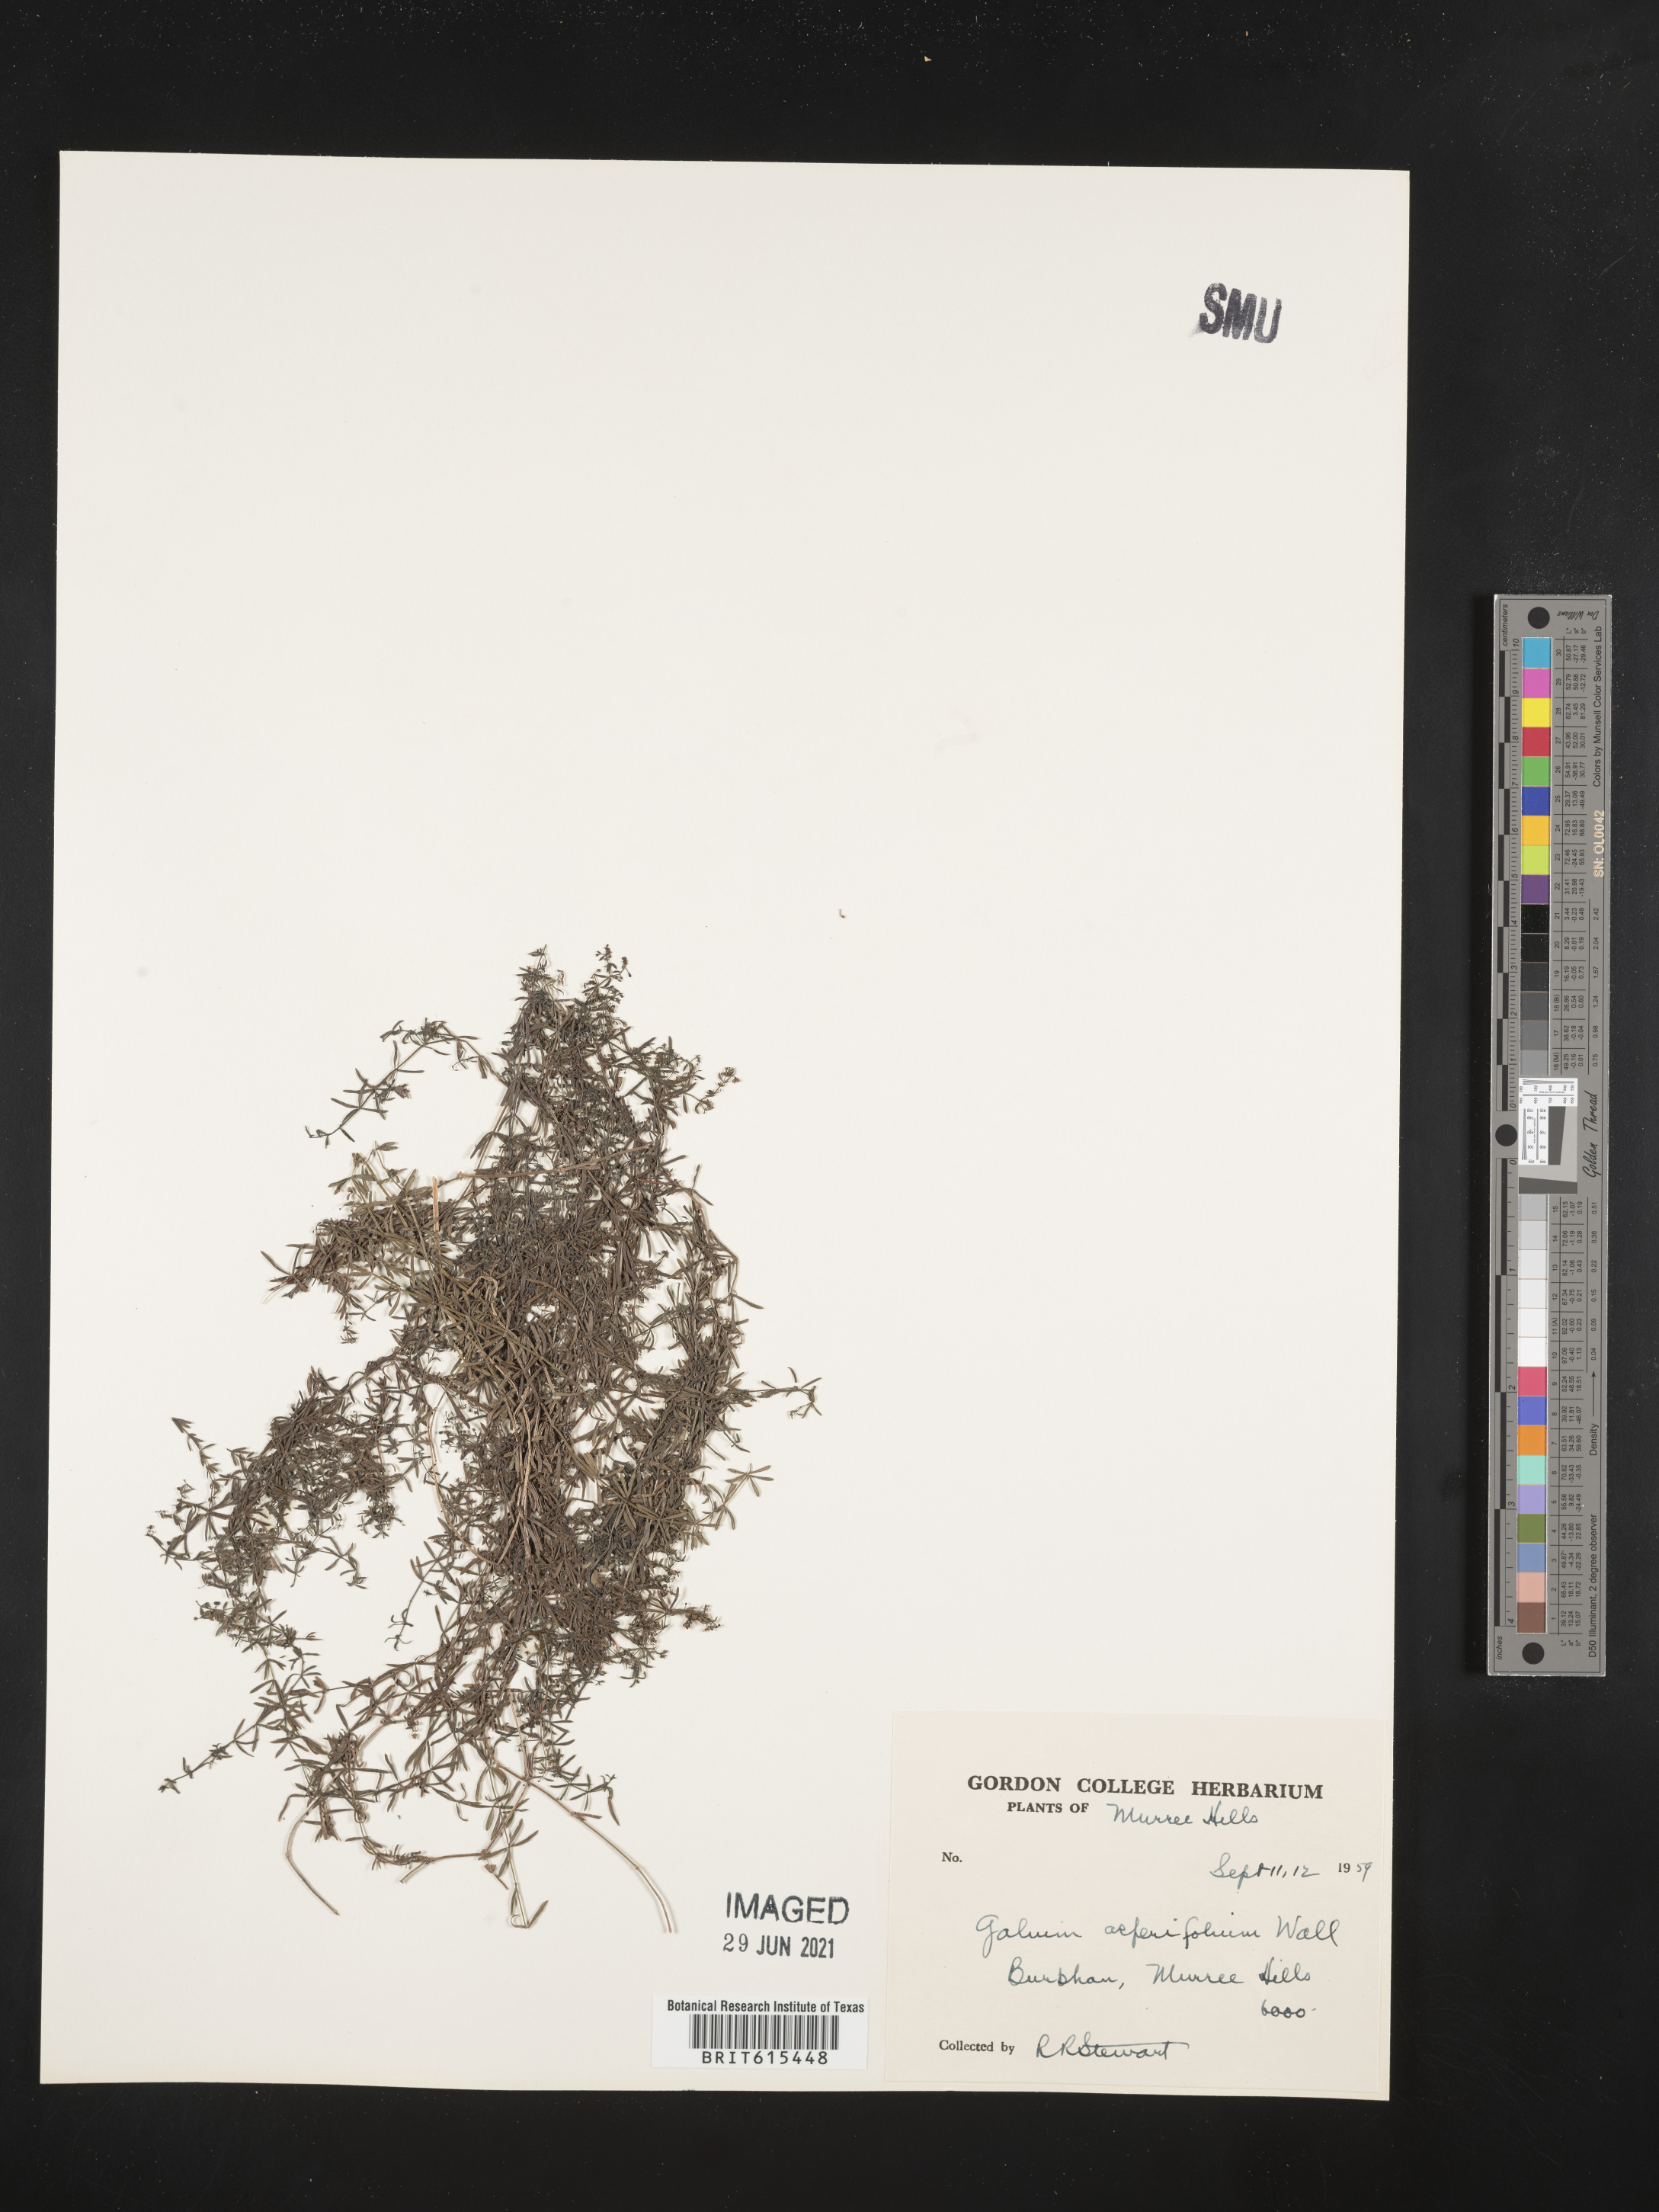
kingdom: Plantae
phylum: Tracheophyta
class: Magnoliopsida
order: Gentianales
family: Rubiaceae
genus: Galium
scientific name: Galium asperifolium
